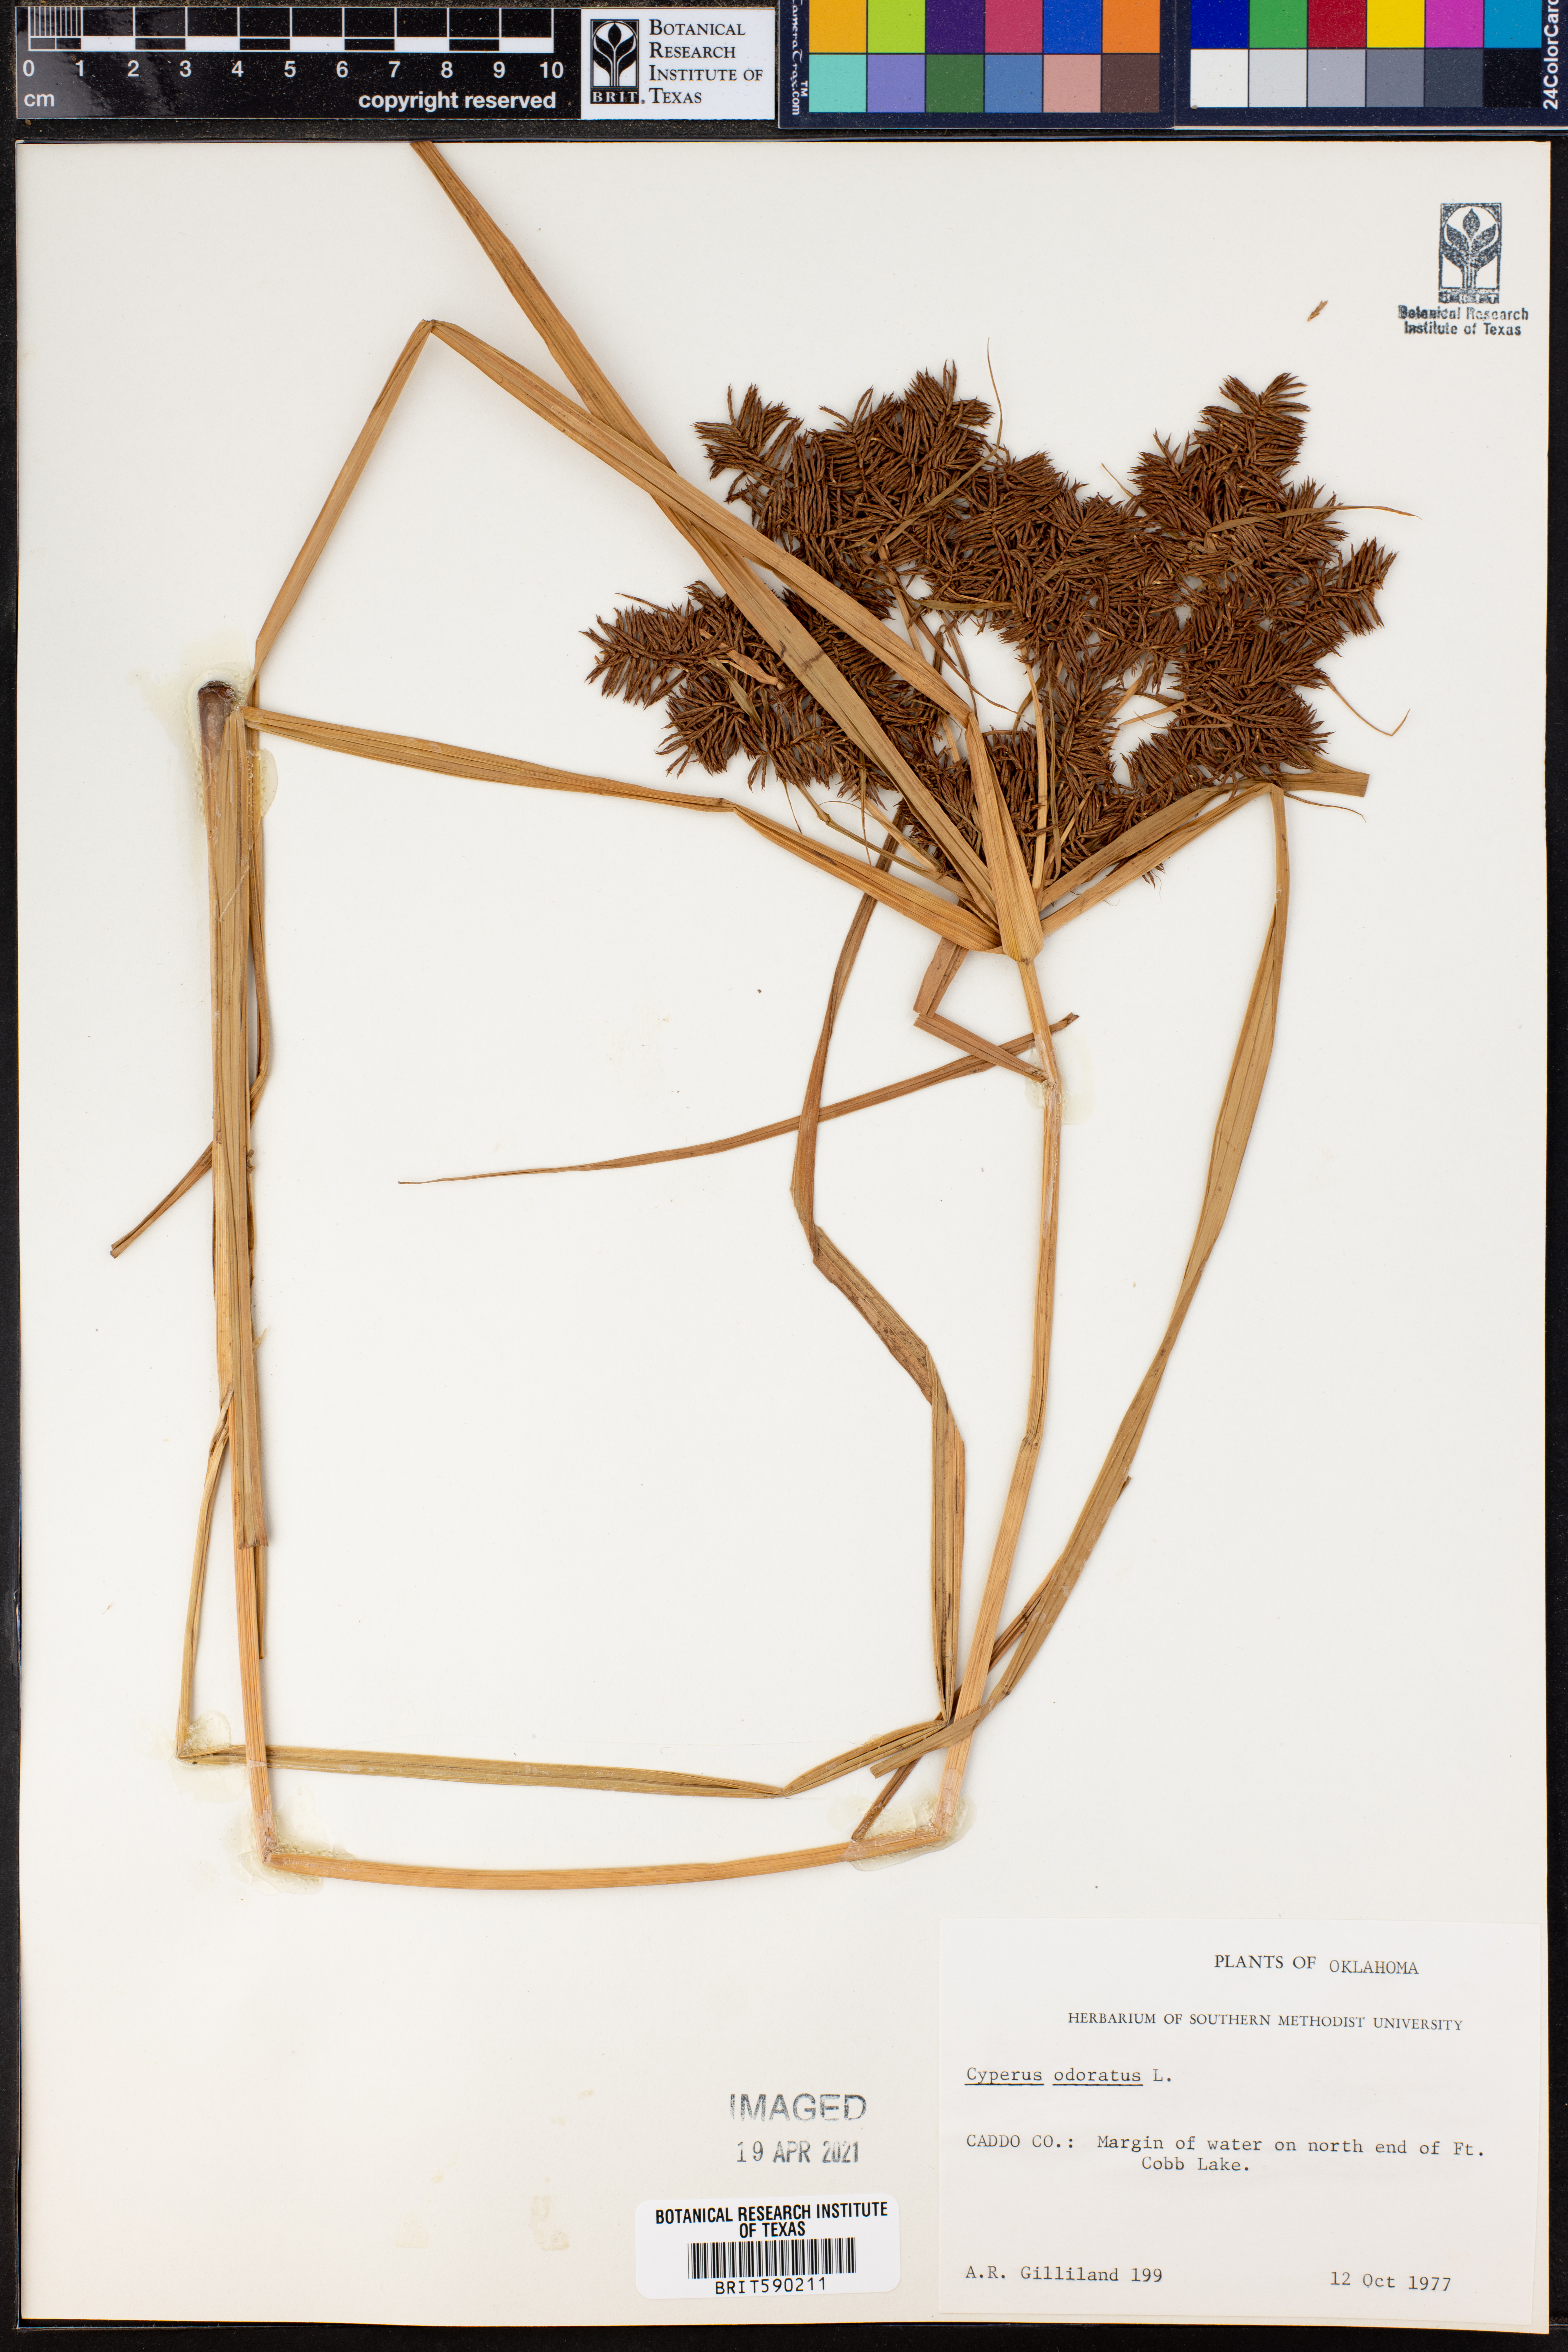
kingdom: Plantae
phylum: Tracheophyta
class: Liliopsida
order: Poales
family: Cyperaceae
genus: Cyperus
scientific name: Cyperus odoratus
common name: Fragrant flatsedge
